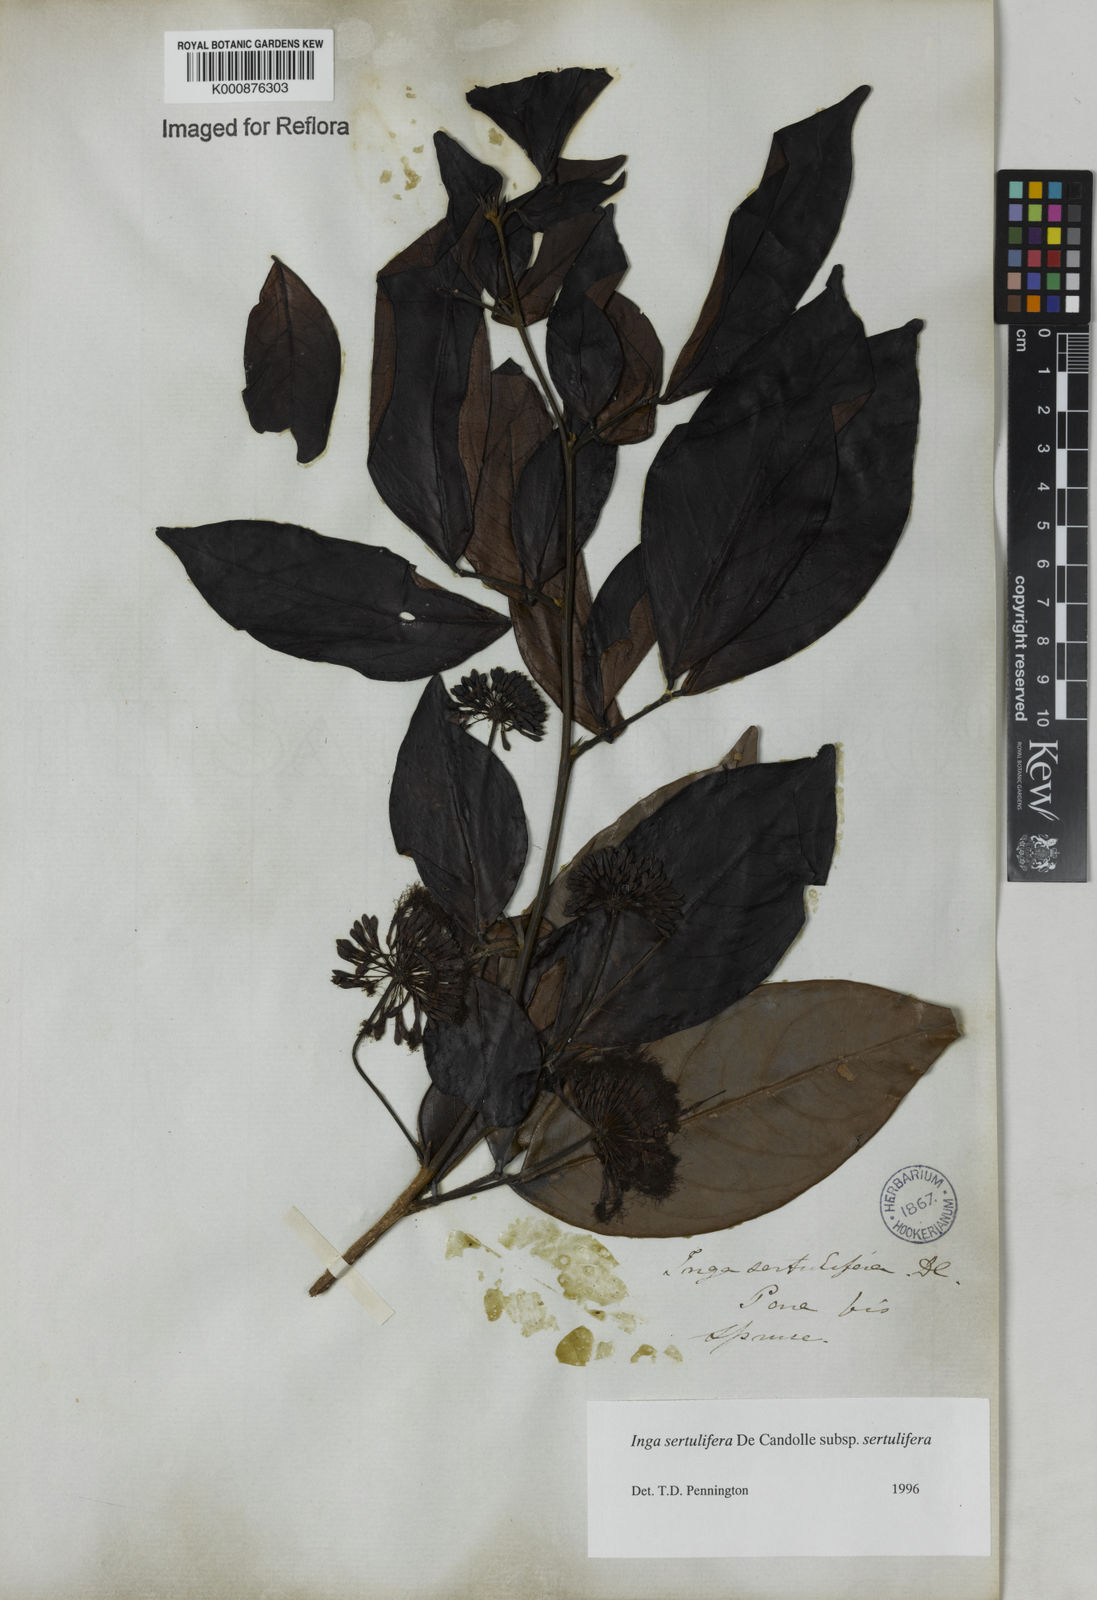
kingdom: Plantae
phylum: Tracheophyta
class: Magnoliopsida
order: Fabales
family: Fabaceae
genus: Inga
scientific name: Inga sertulifera
